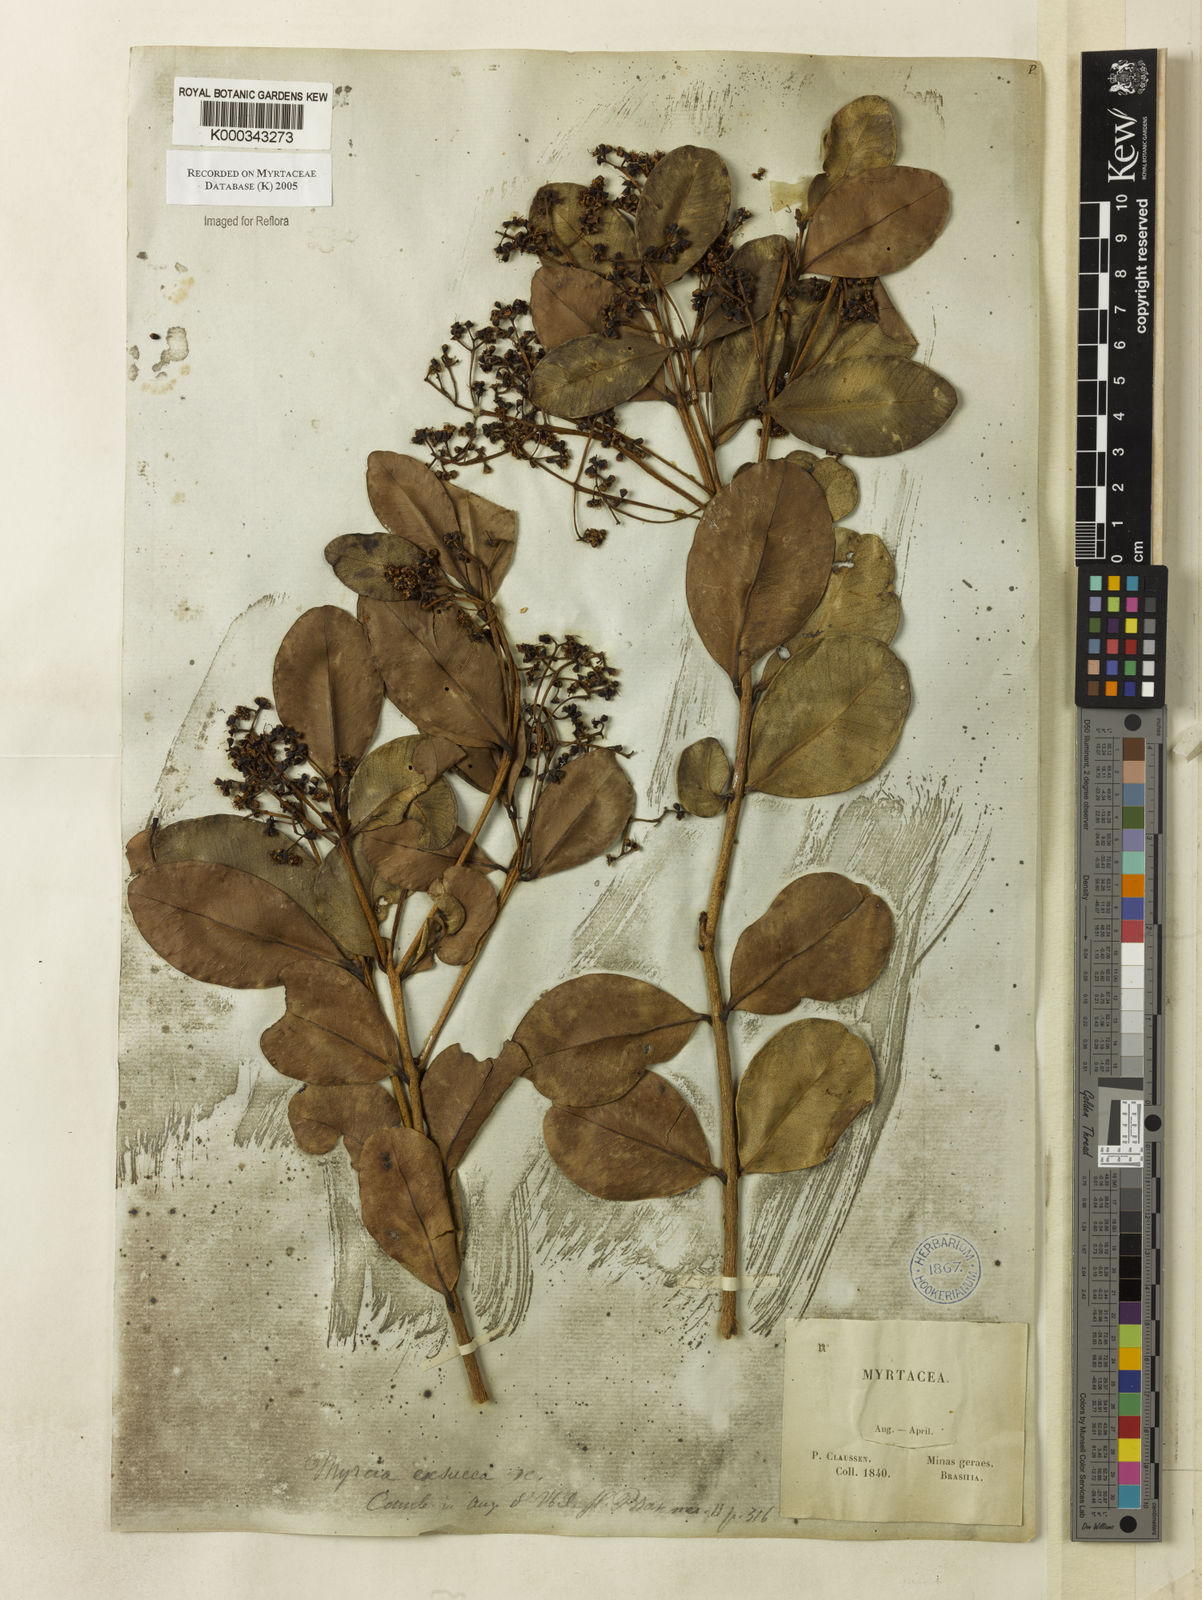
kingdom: Plantae
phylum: Tracheophyta
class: Magnoliopsida
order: Myrtales
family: Myrtaceae
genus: Myrcia
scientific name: Myrcia guianensis
